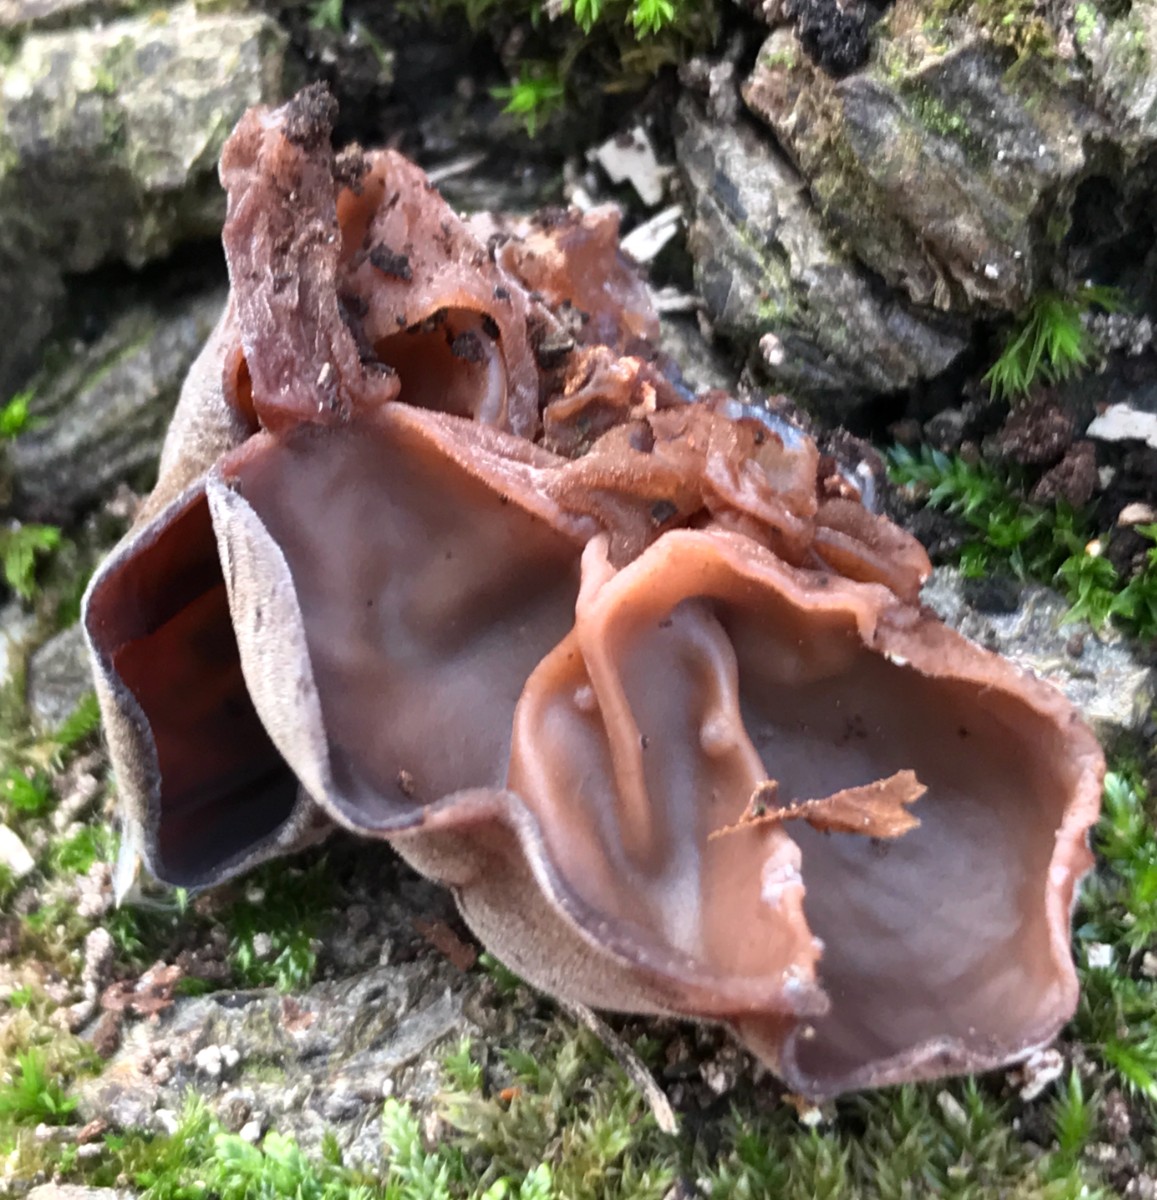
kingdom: Fungi
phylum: Basidiomycota
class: Agaricomycetes
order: Auriculariales
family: Auriculariaceae
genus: Auricularia
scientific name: Auricularia auricula-judae
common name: almindelig judasøre
